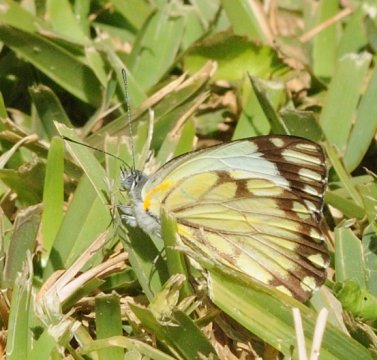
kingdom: Animalia
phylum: Arthropoda
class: Insecta
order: Lepidoptera
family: Pieridae
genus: Belenois
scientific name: Belenois creona
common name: African Caper
